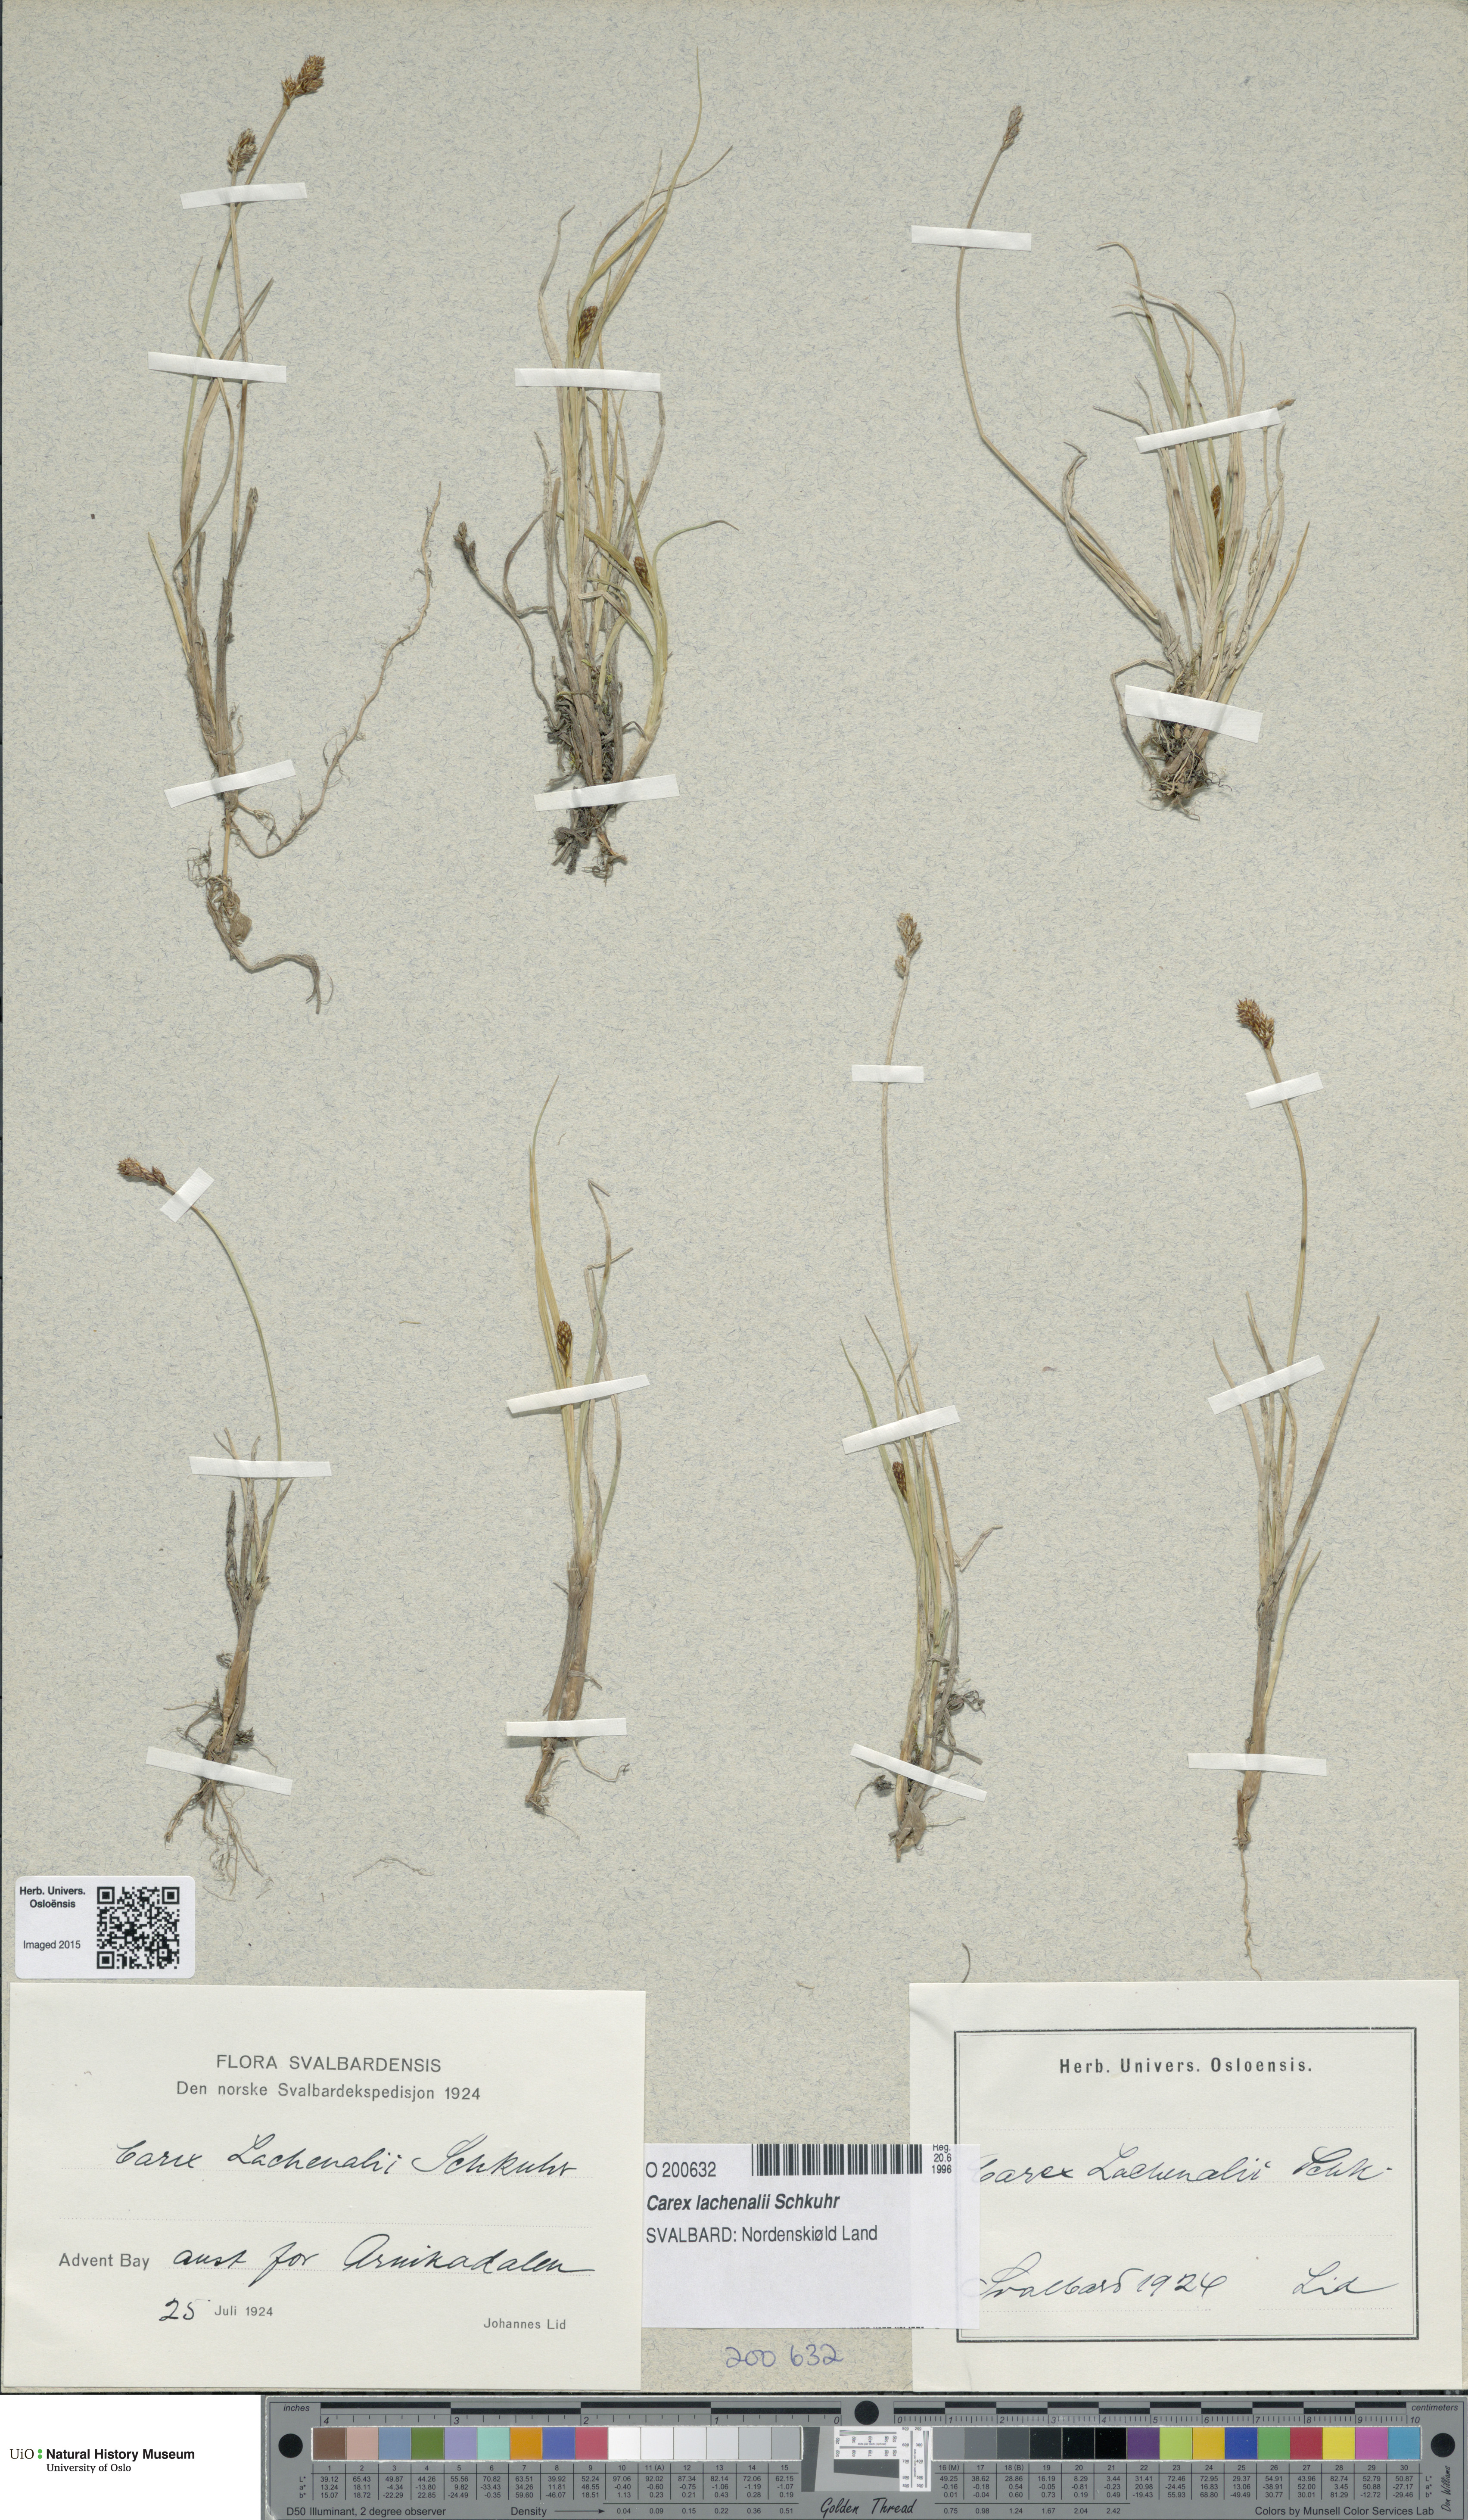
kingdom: Plantae
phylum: Tracheophyta
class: Liliopsida
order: Poales
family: Cyperaceae
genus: Carex
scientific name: Carex lachenalii
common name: Hare's-foot sedge
